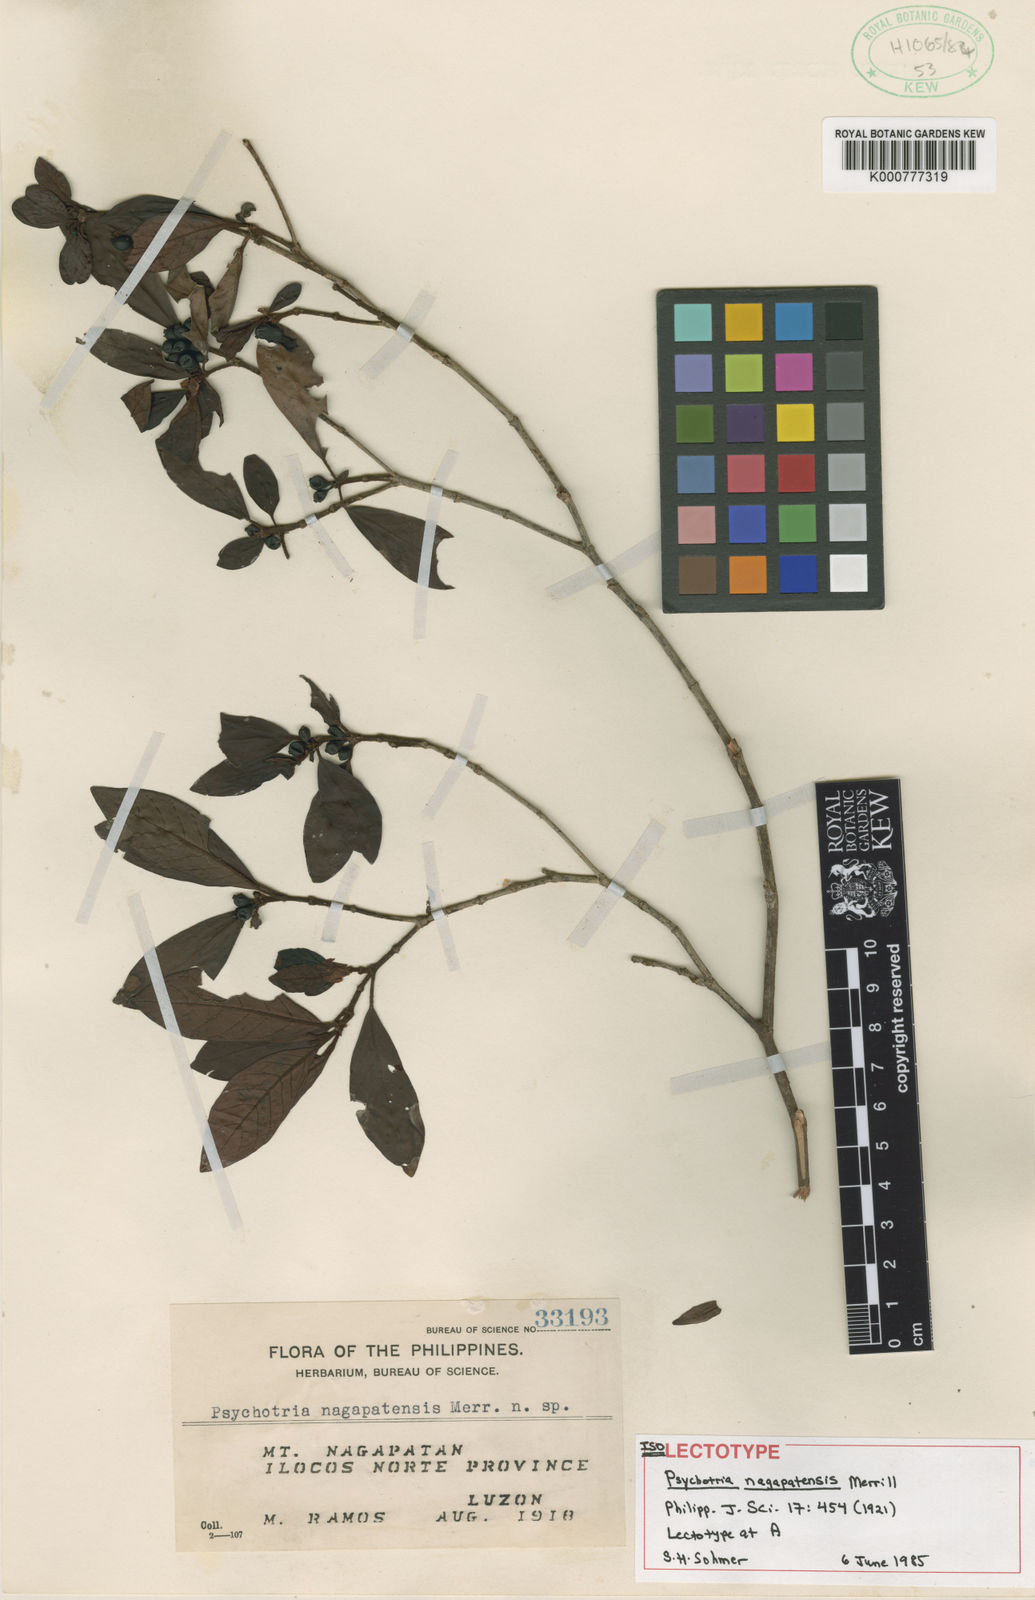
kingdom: Plantae
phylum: Tracheophyta
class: Magnoliopsida
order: Gentianales
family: Rubiaceae
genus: Psychotria
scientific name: Psychotria nagapatensis
